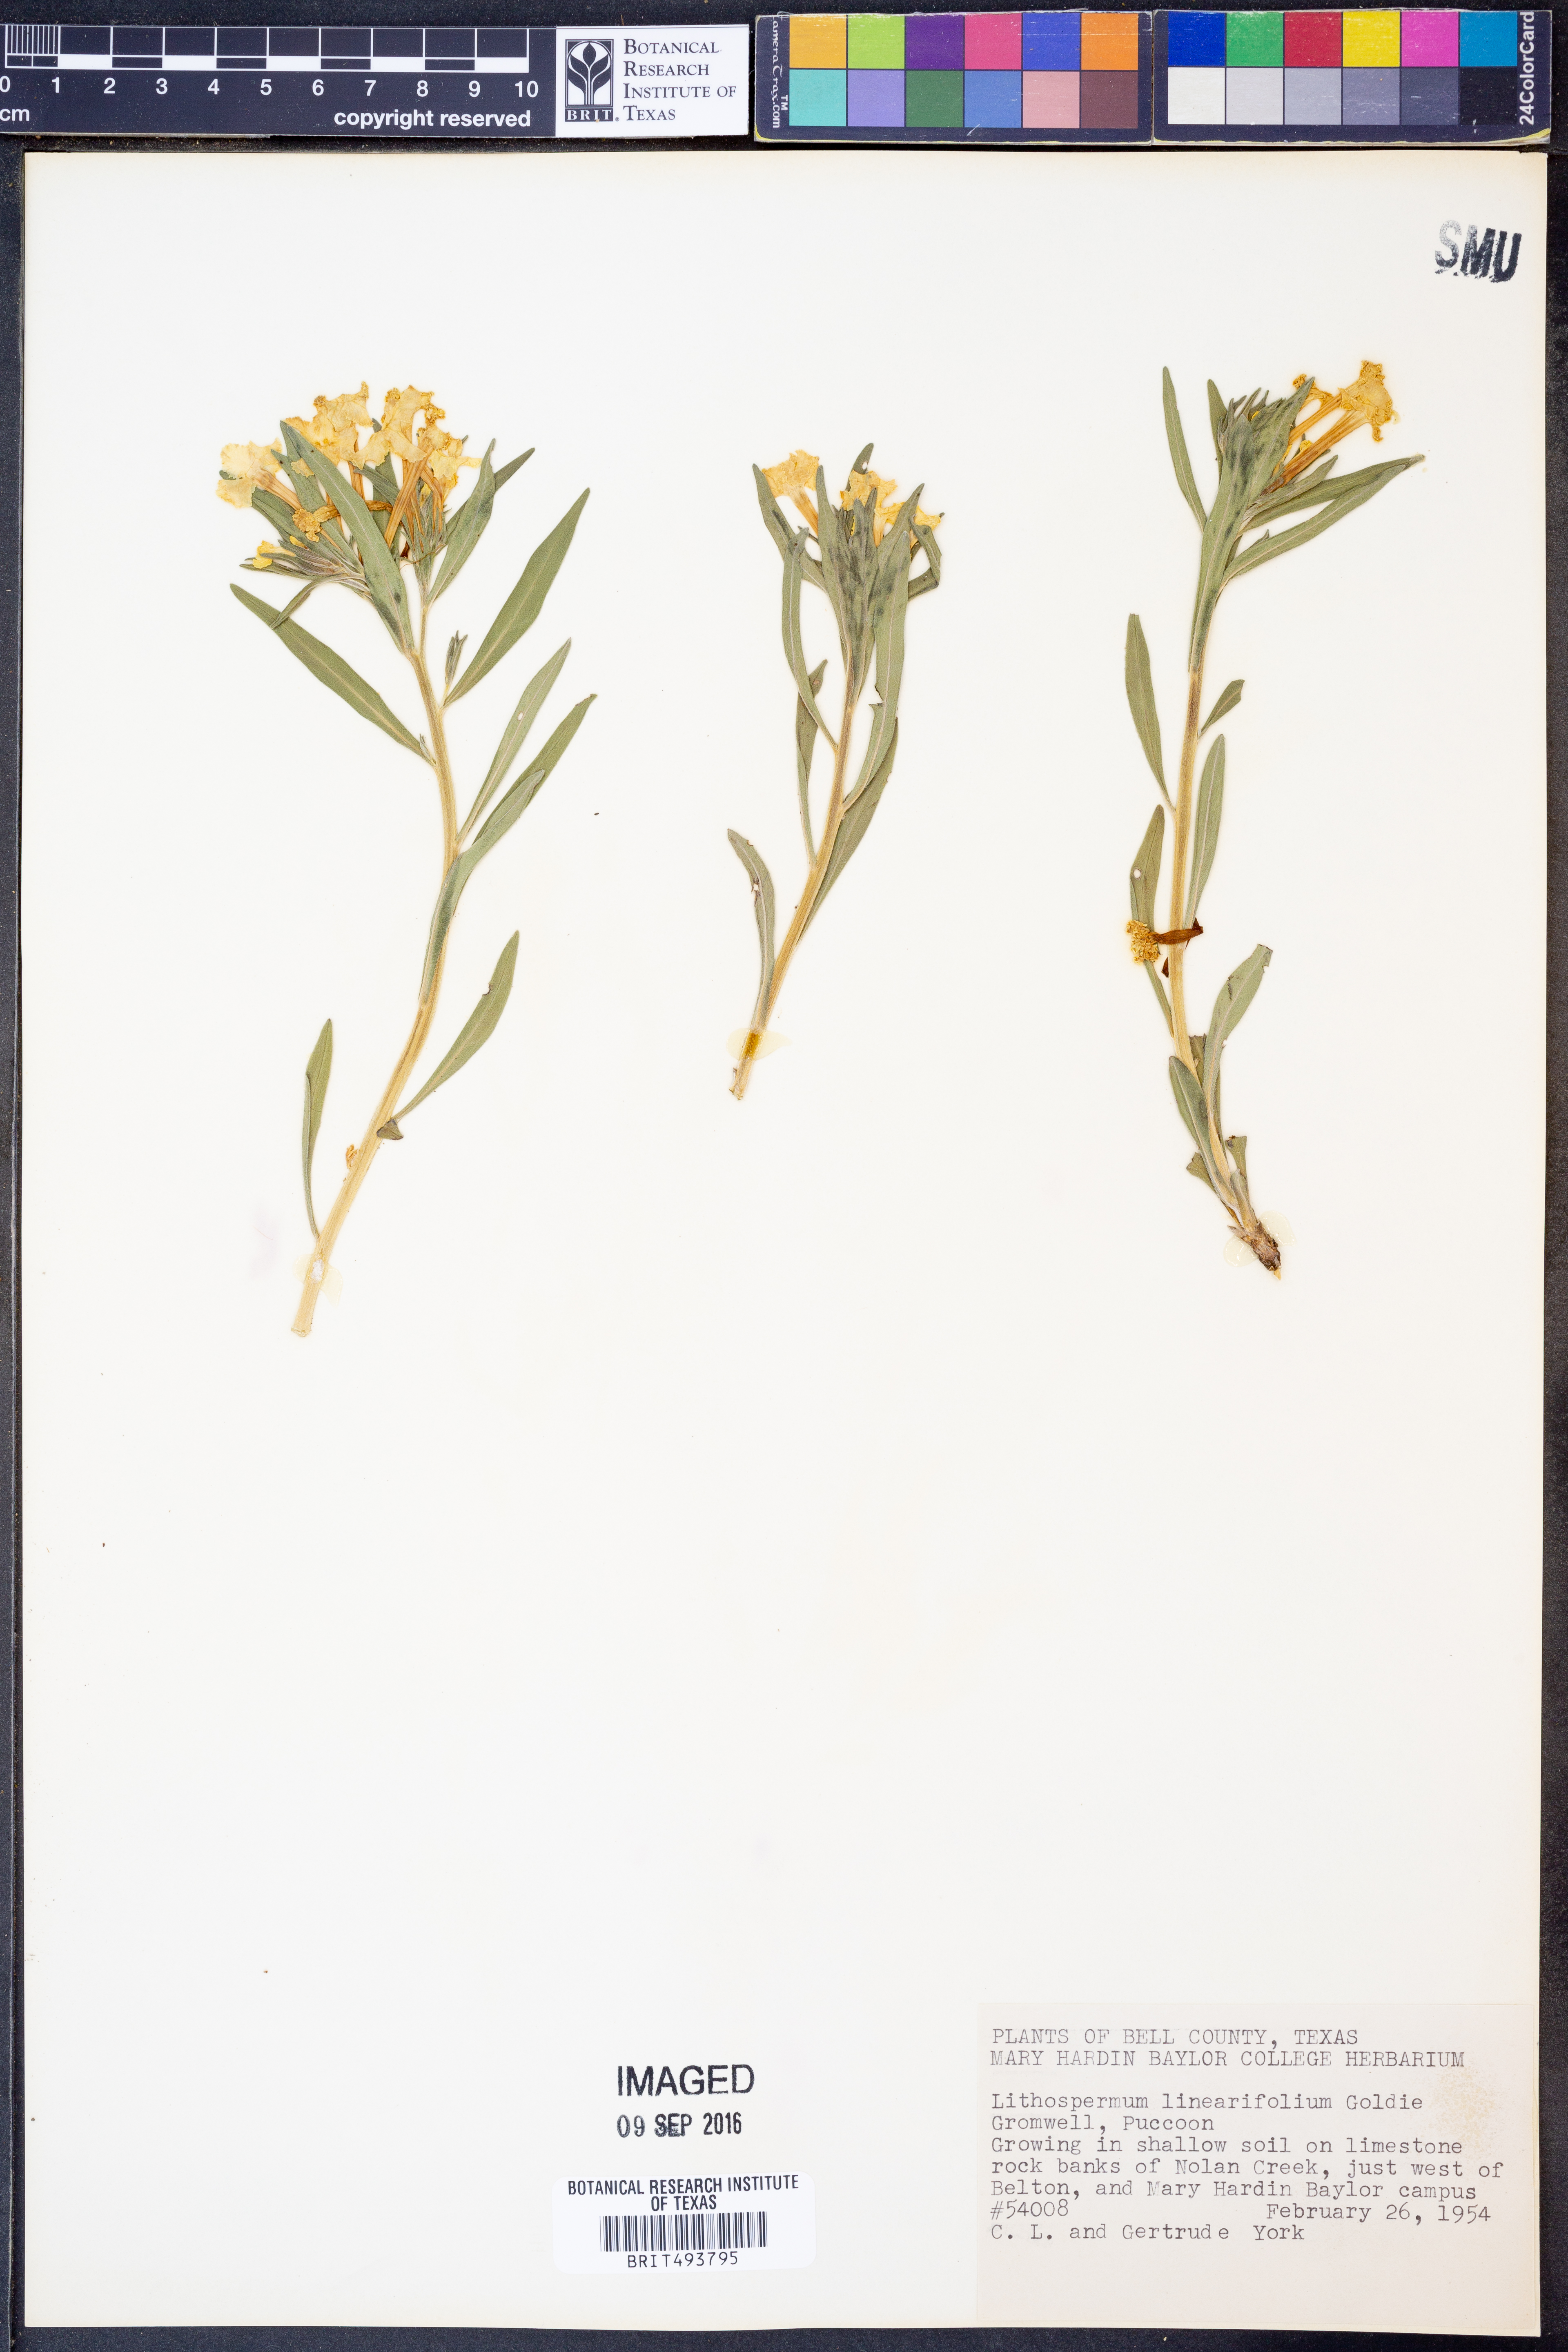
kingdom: Plantae
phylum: Tracheophyta
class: Magnoliopsida
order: Boraginales
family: Boraginaceae
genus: Lithospermum
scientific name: Lithospermum incisum
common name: Fringed gromwell
